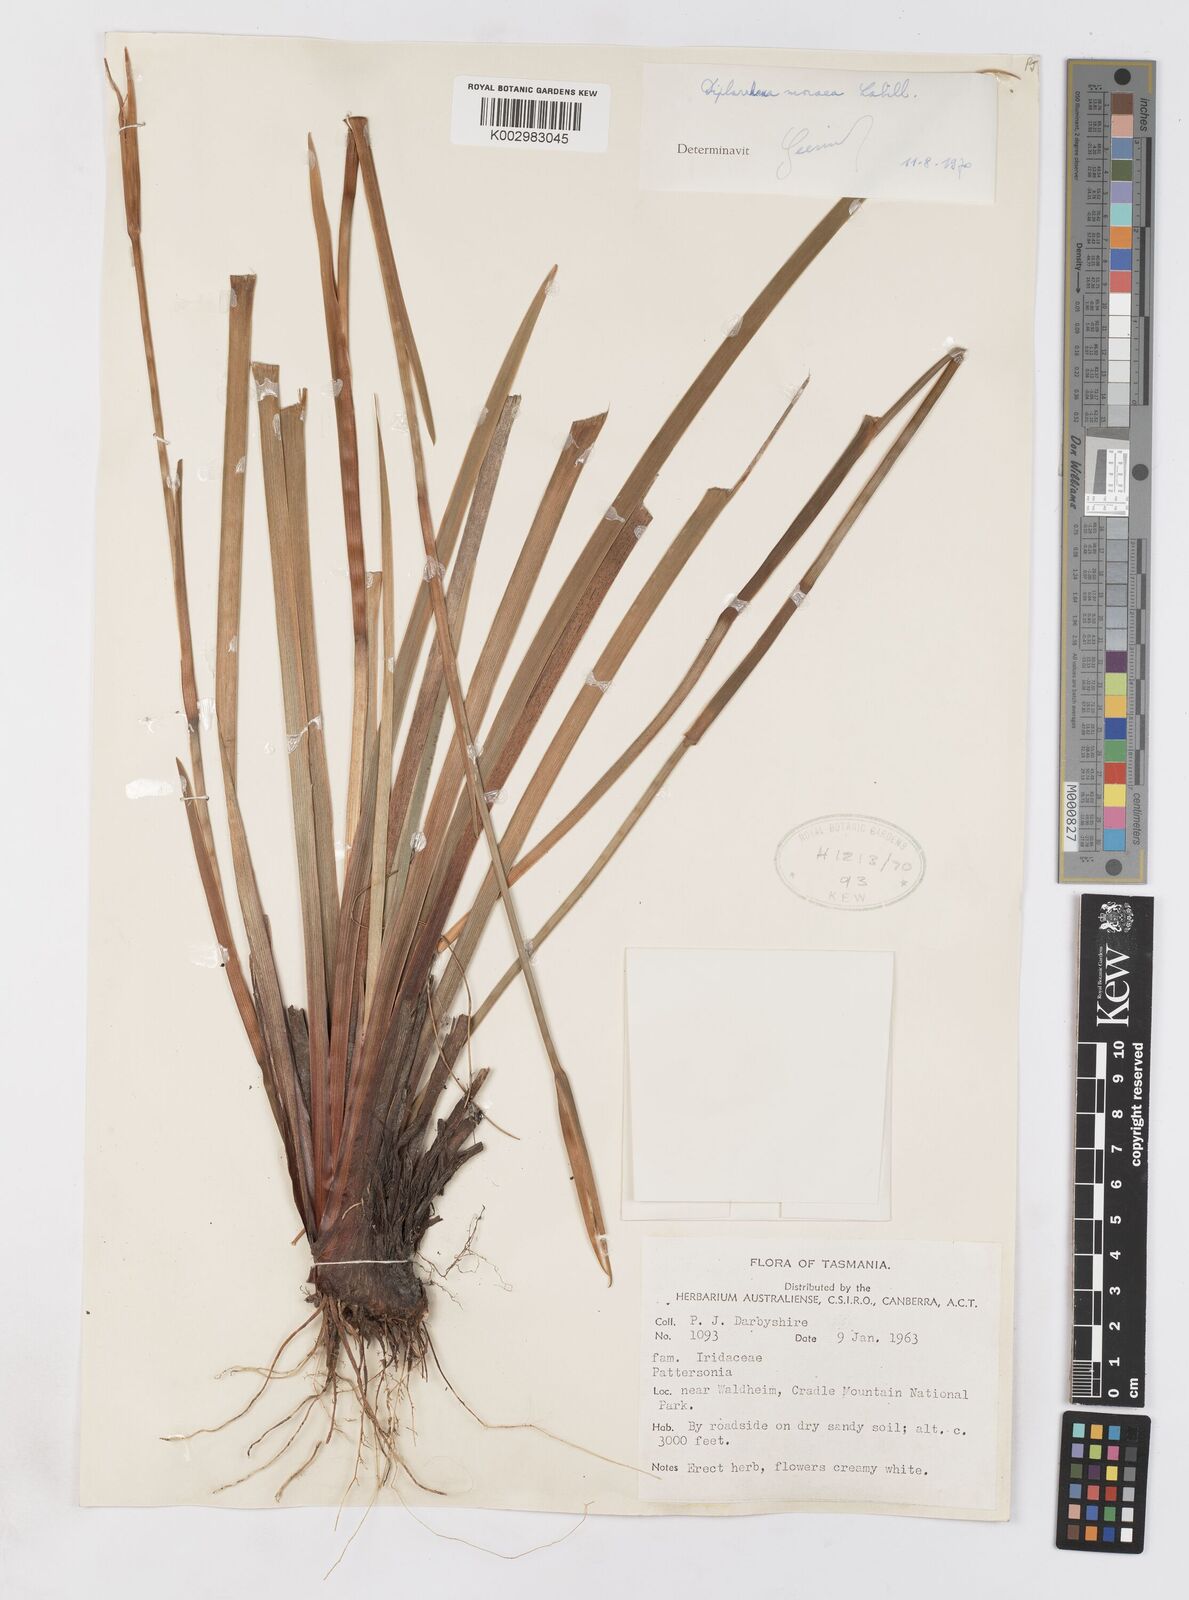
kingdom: Plantae
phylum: Tracheophyta
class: Liliopsida
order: Asparagales
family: Iridaceae
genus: Diplarrena
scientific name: Diplarrena moraea
